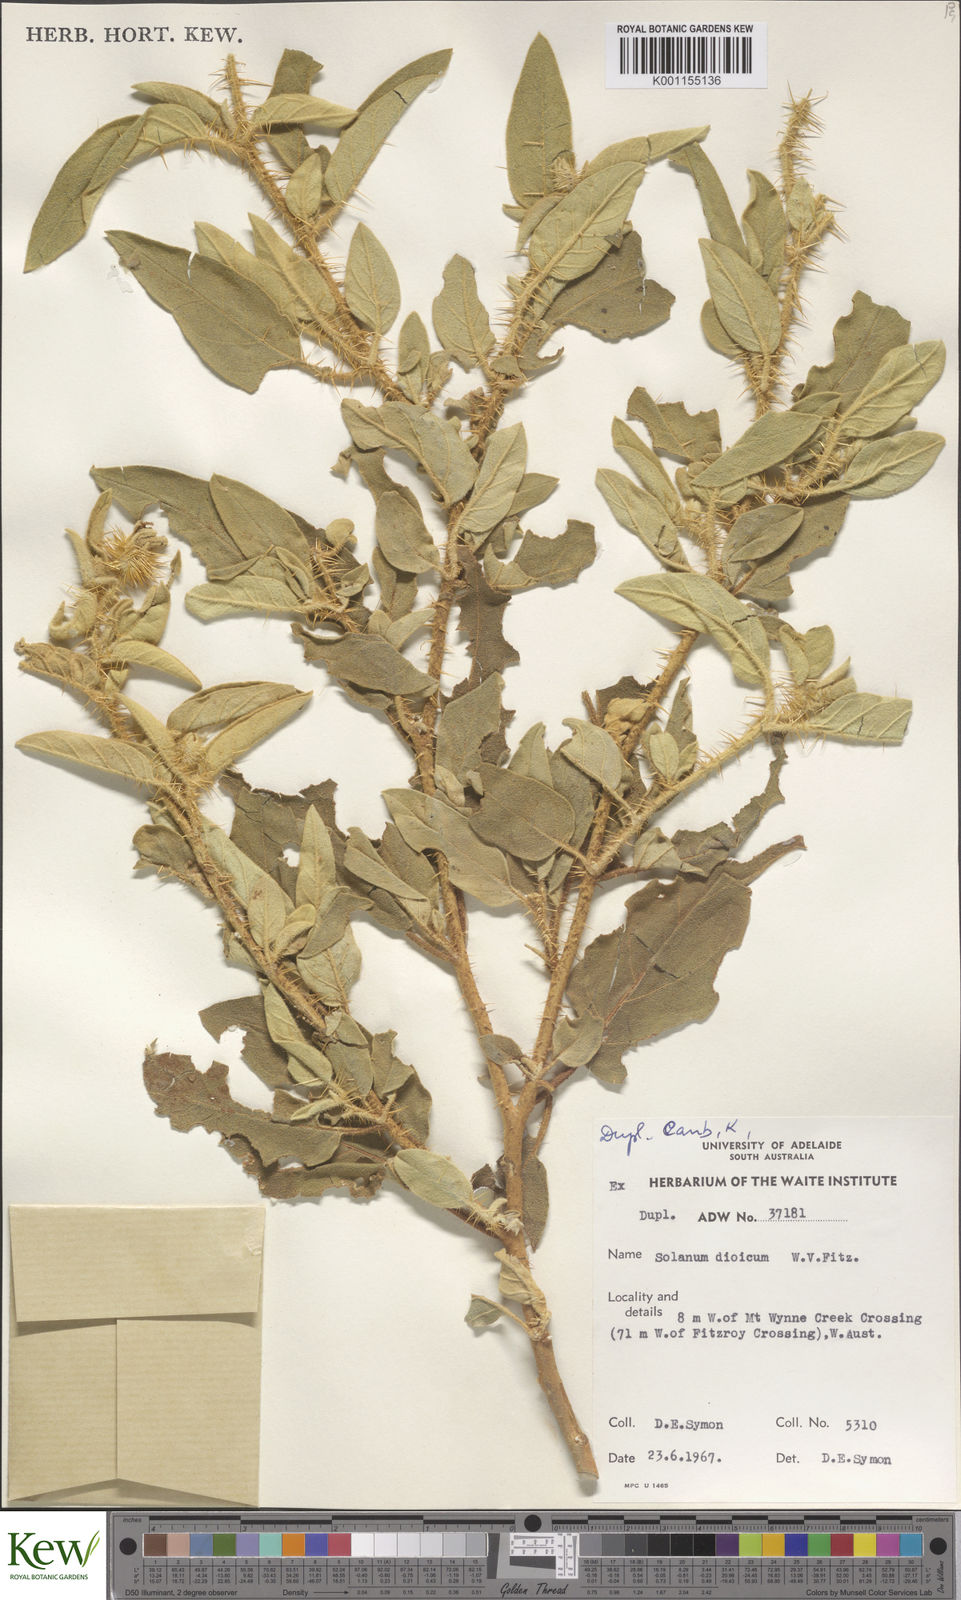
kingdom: Plantae
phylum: Tracheophyta
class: Magnoliopsida
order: Solanales
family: Solanaceae
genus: Solanum
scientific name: Solanum dioicum
